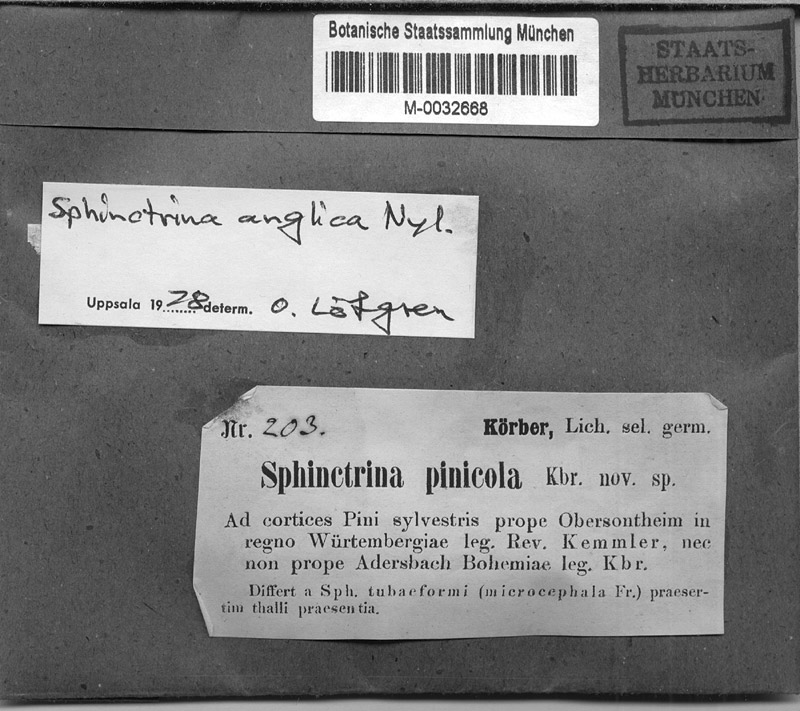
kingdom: Fungi
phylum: Ascomycota
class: Eurotiomycetes
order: Mycocaliciales
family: Sphinctrinaceae
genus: Sphinctrina
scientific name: Sphinctrina anglica
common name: English parasite needle lichen
